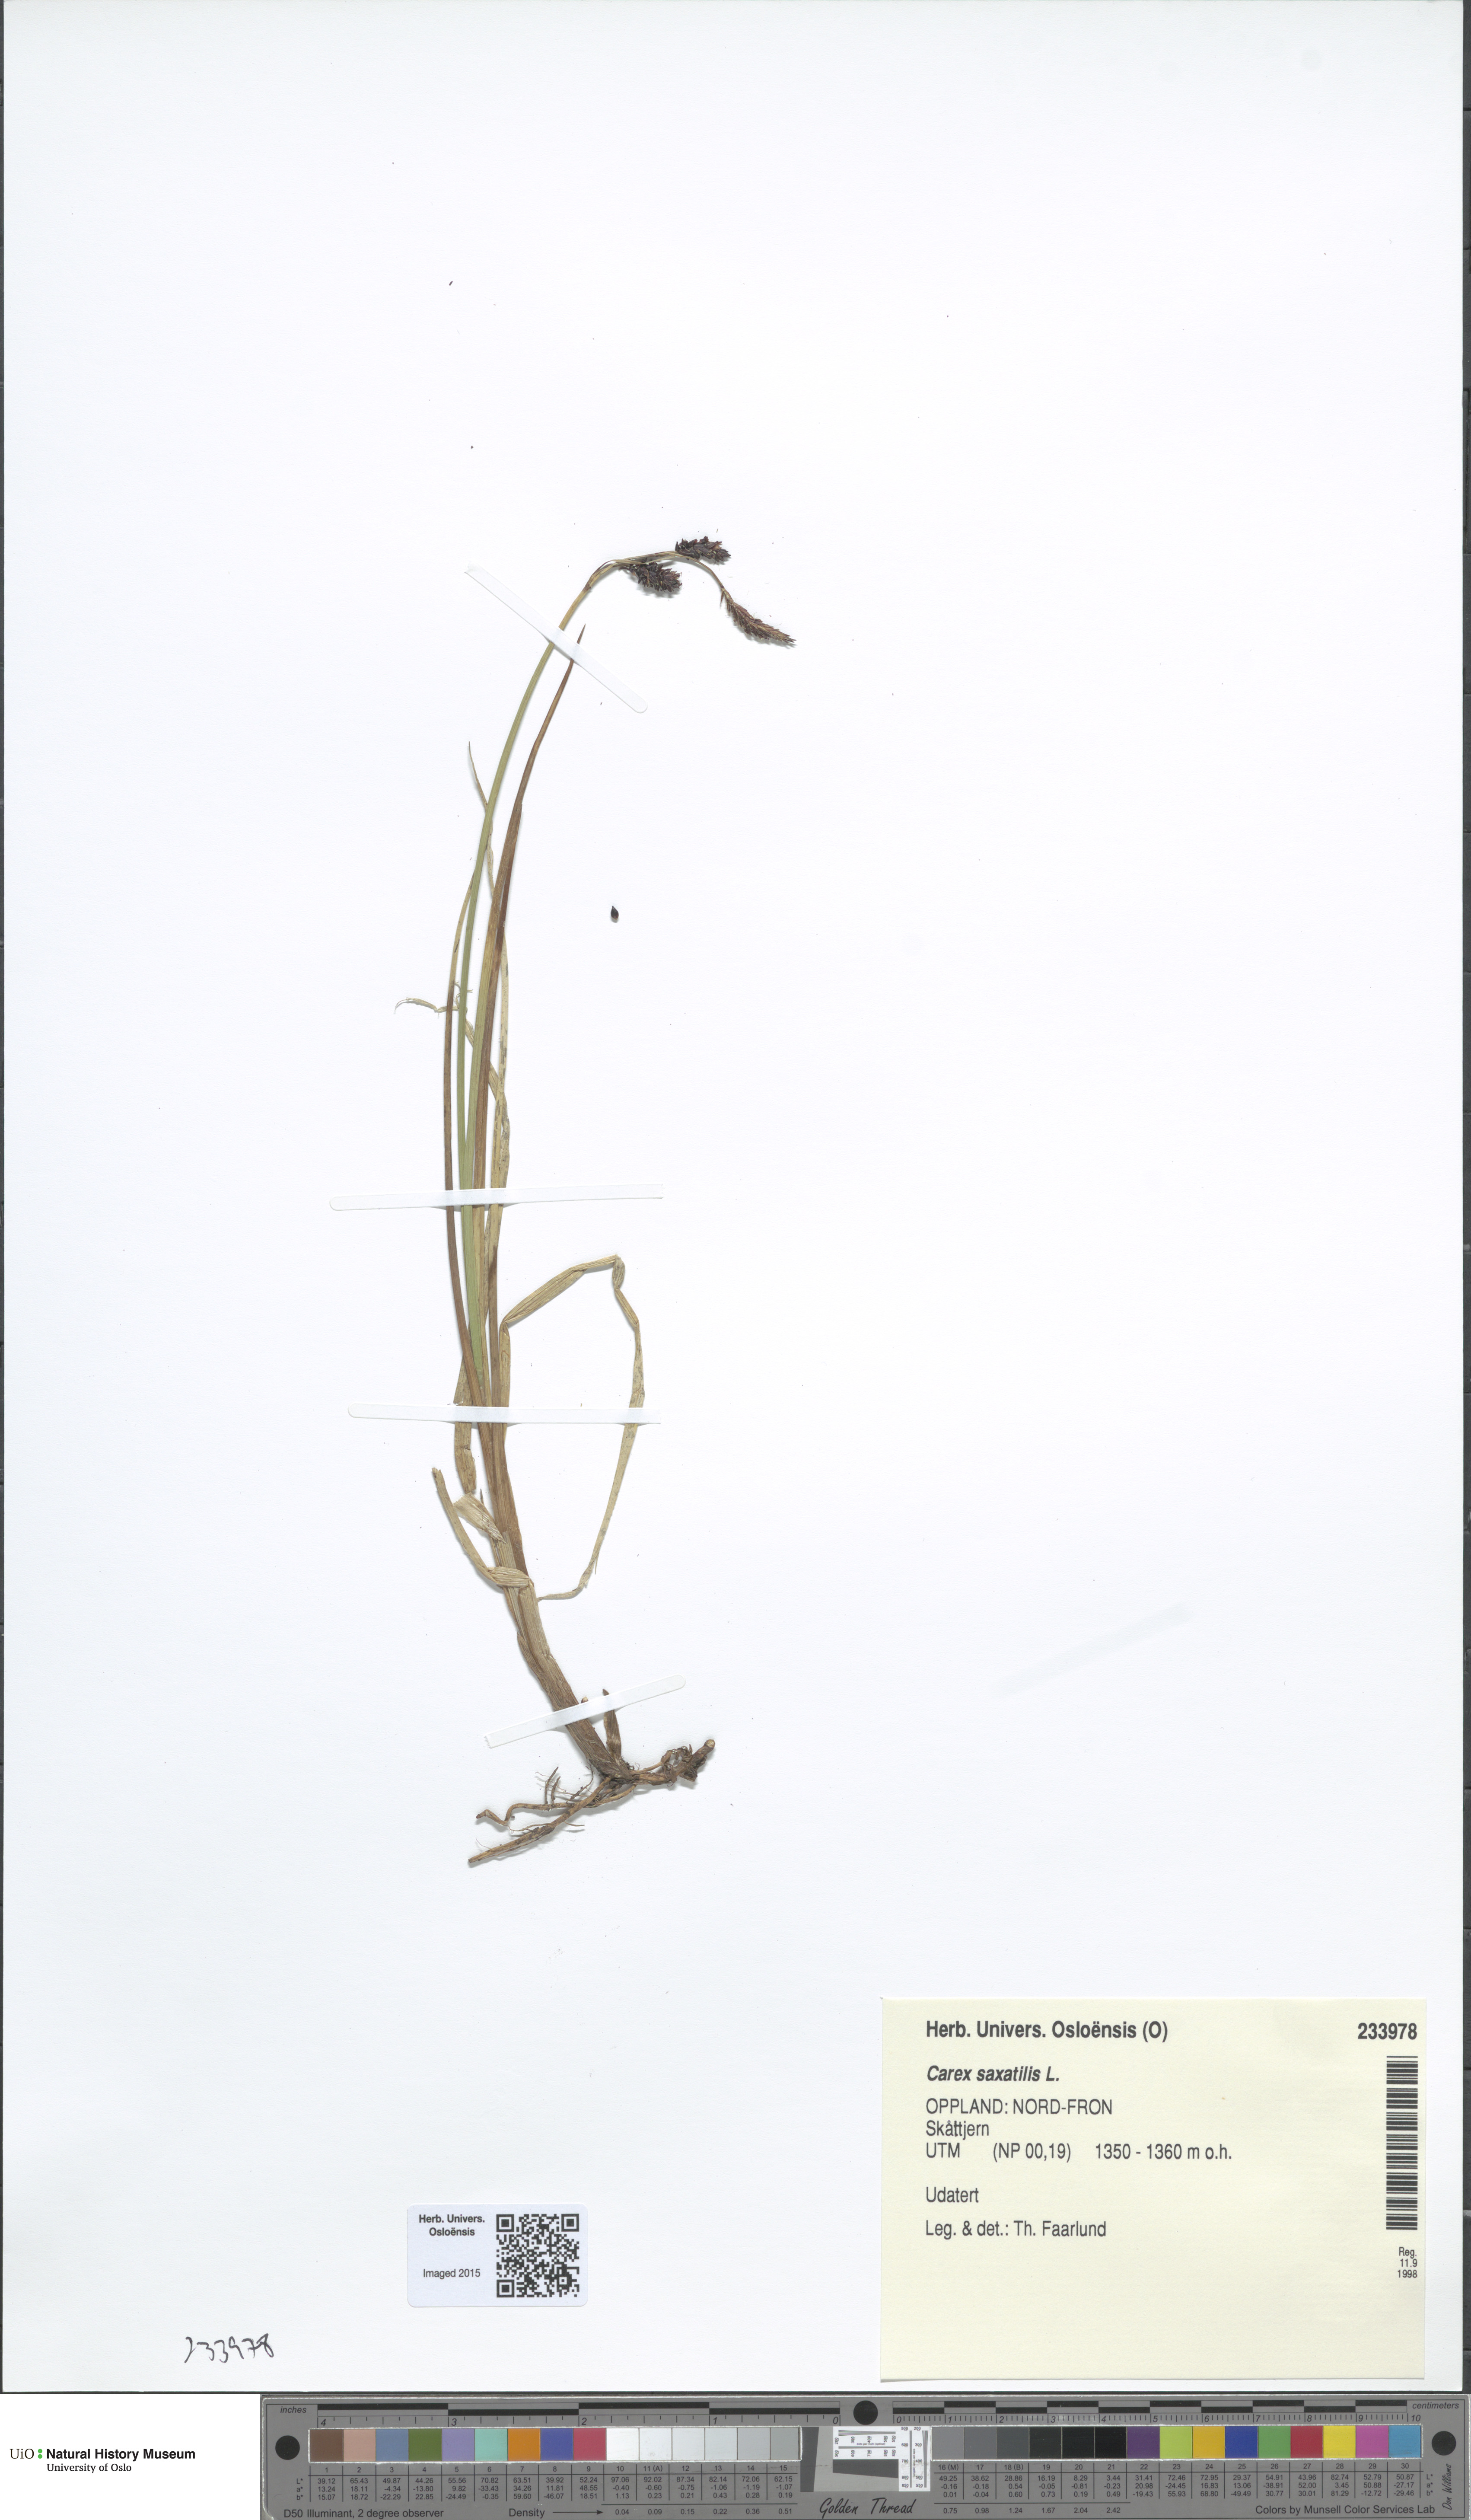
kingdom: Plantae
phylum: Tracheophyta
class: Liliopsida
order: Poales
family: Cyperaceae
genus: Carex
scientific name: Carex saxatilis
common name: Russet sedge
